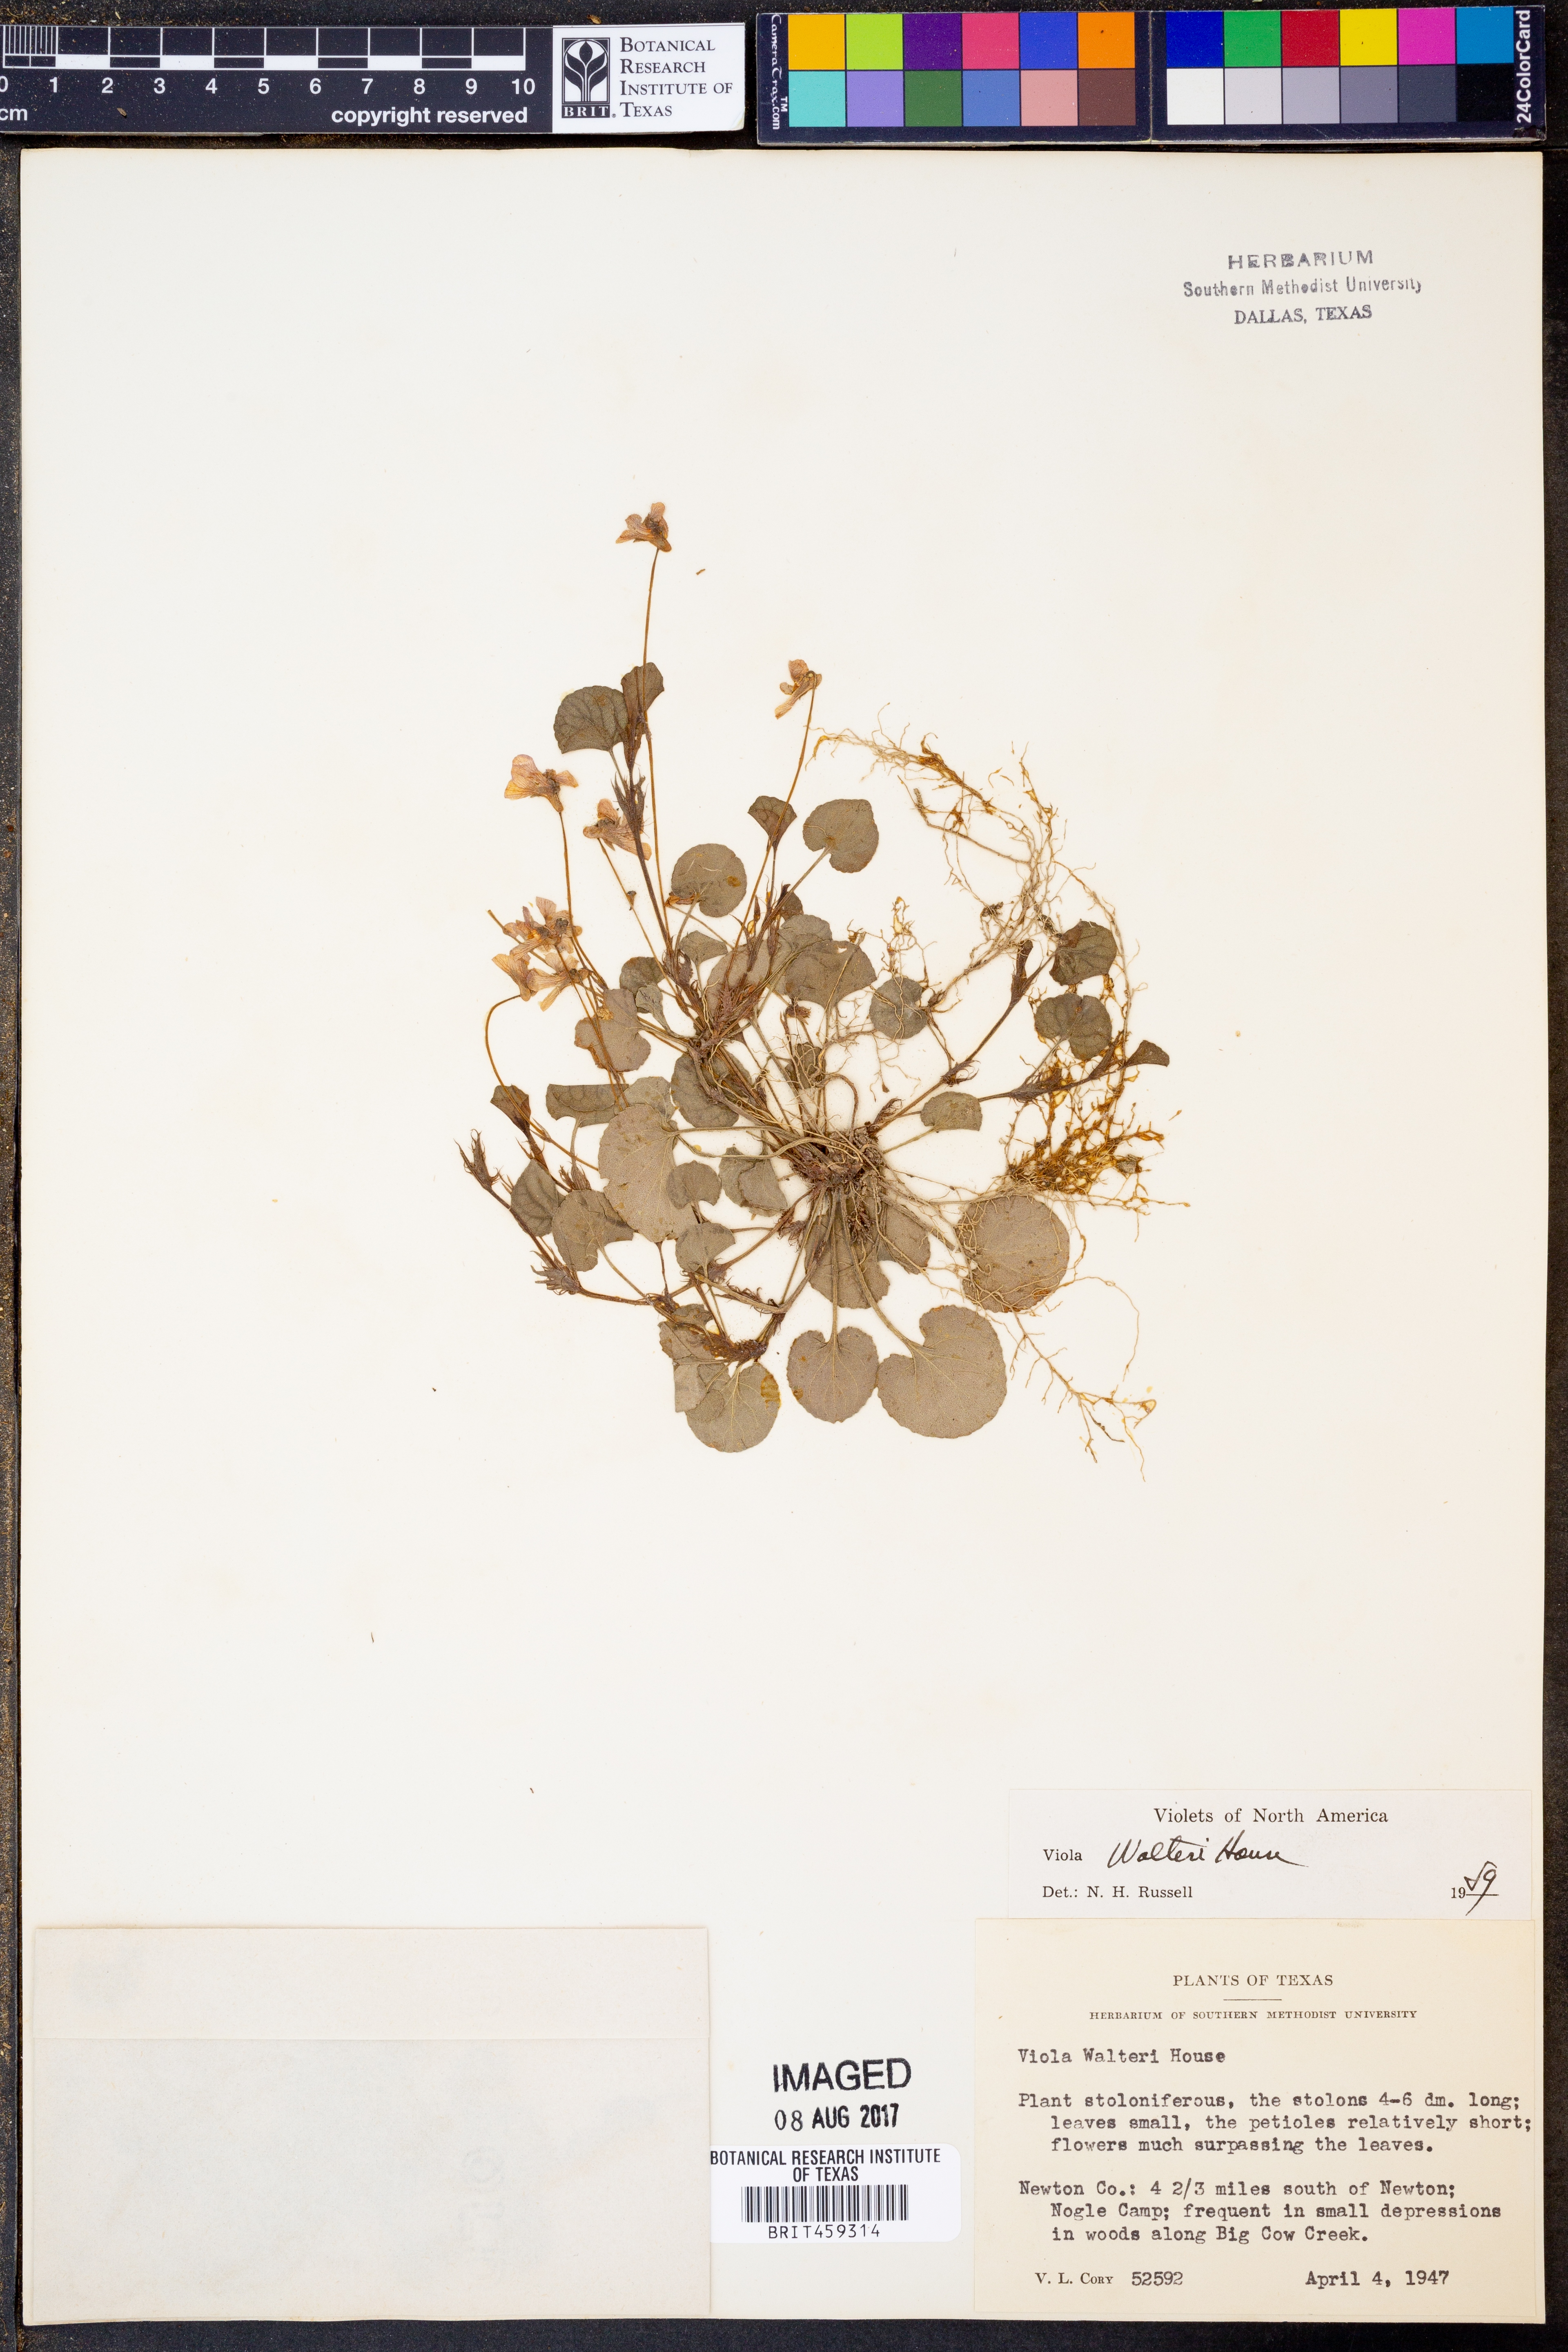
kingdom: Plantae
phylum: Tracheophyta
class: Magnoliopsida
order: Malpighiales
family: Violaceae
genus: Viola
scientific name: Viola walteri
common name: Prostrate southern violet
